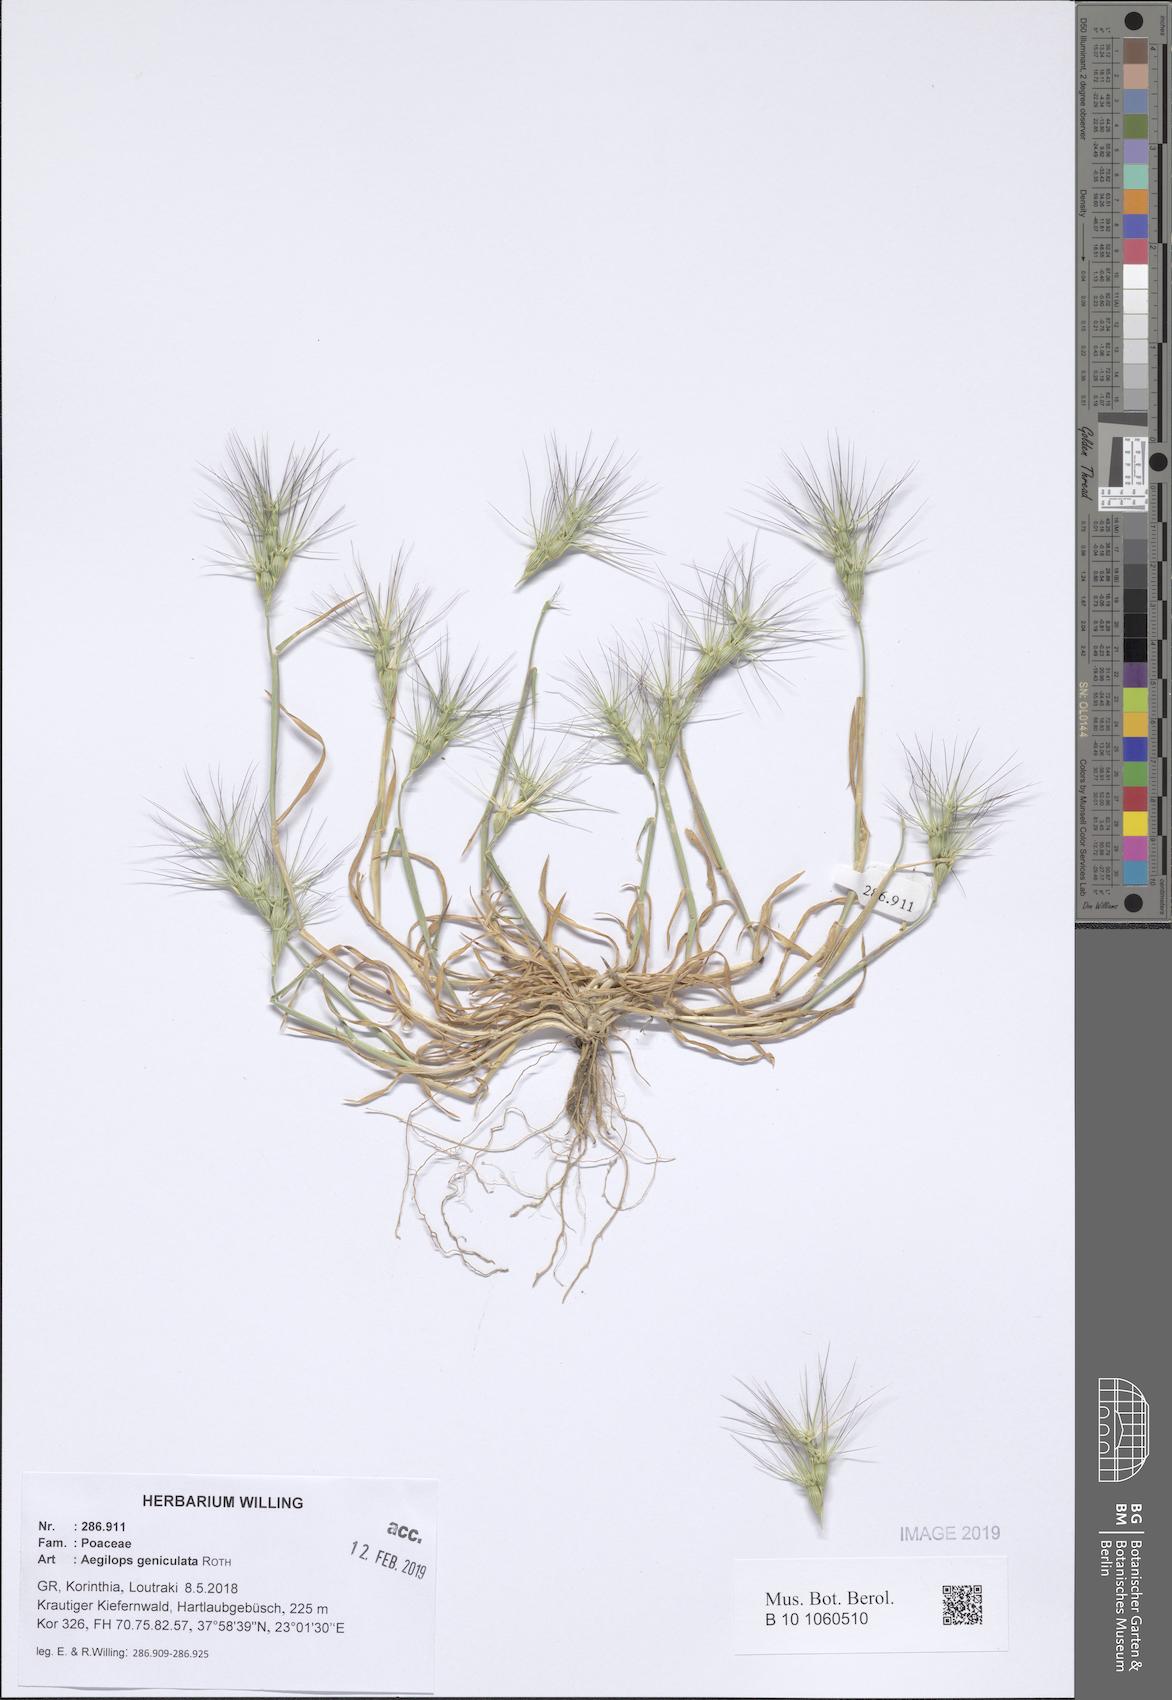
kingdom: Plantae
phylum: Tracheophyta
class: Liliopsida
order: Poales
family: Poaceae
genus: Aegilops
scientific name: Aegilops geniculata
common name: Ovate goat grass
